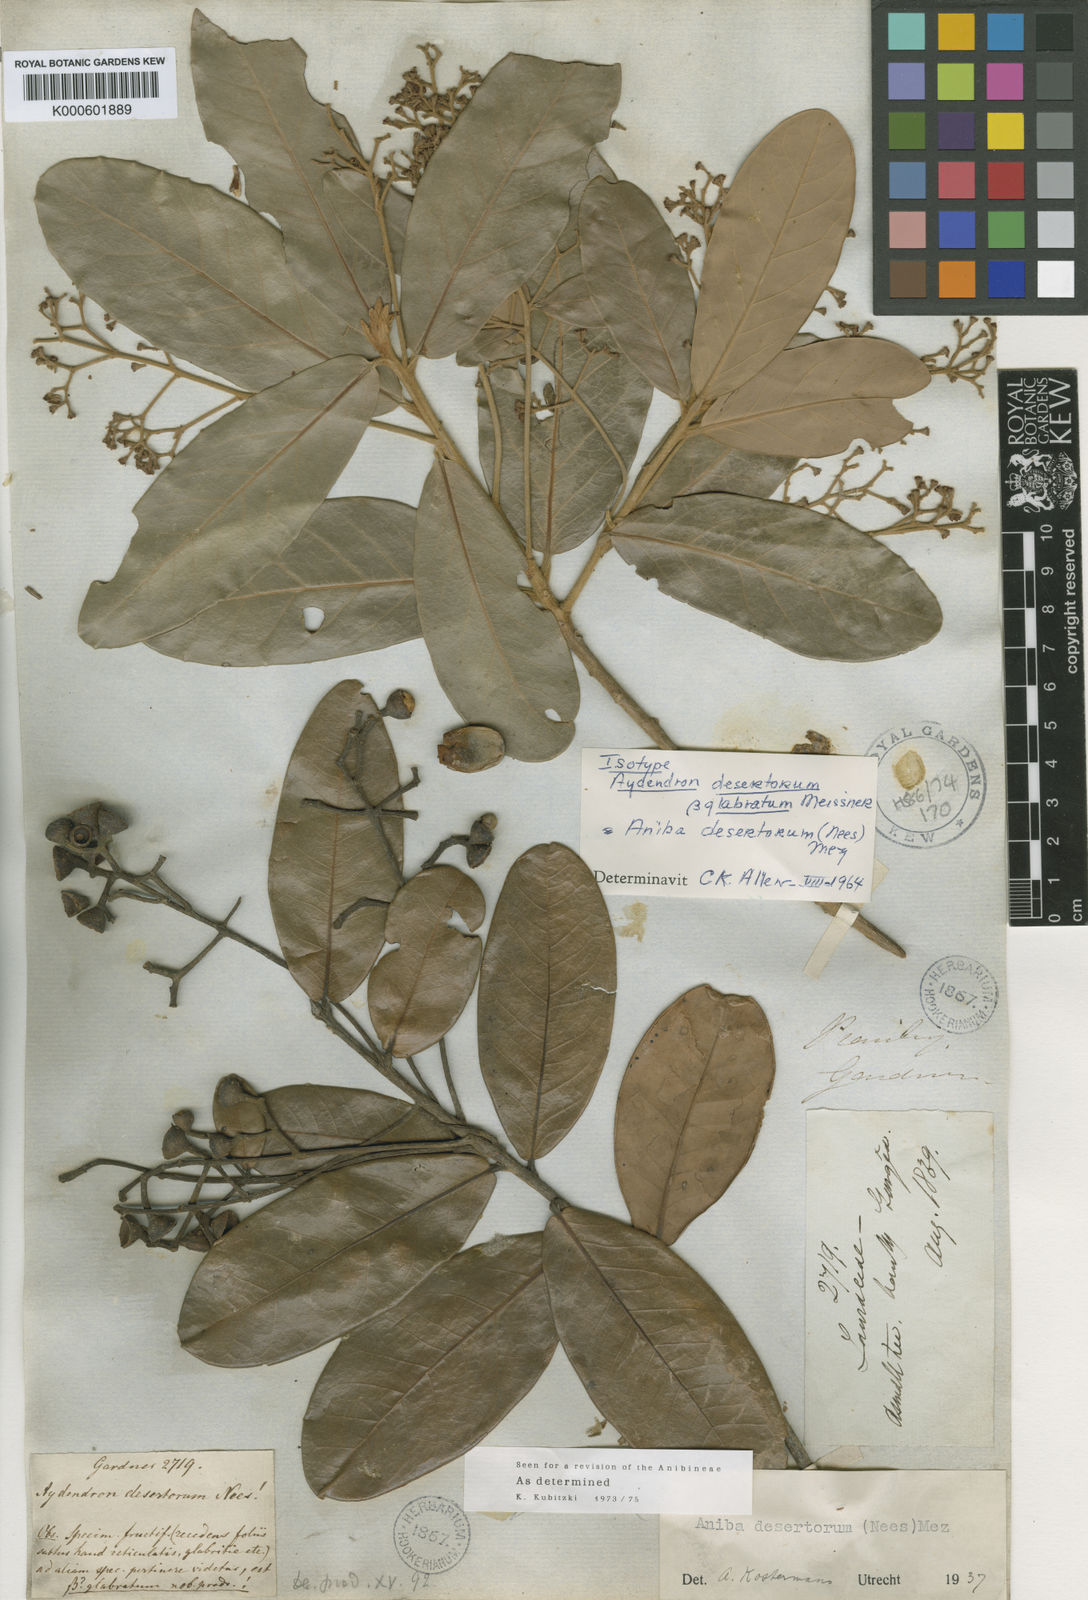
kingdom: Plantae
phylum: Tracheophyta
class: Magnoliopsida
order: Laurales
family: Lauraceae
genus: Aniba
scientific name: Aniba desertorum
